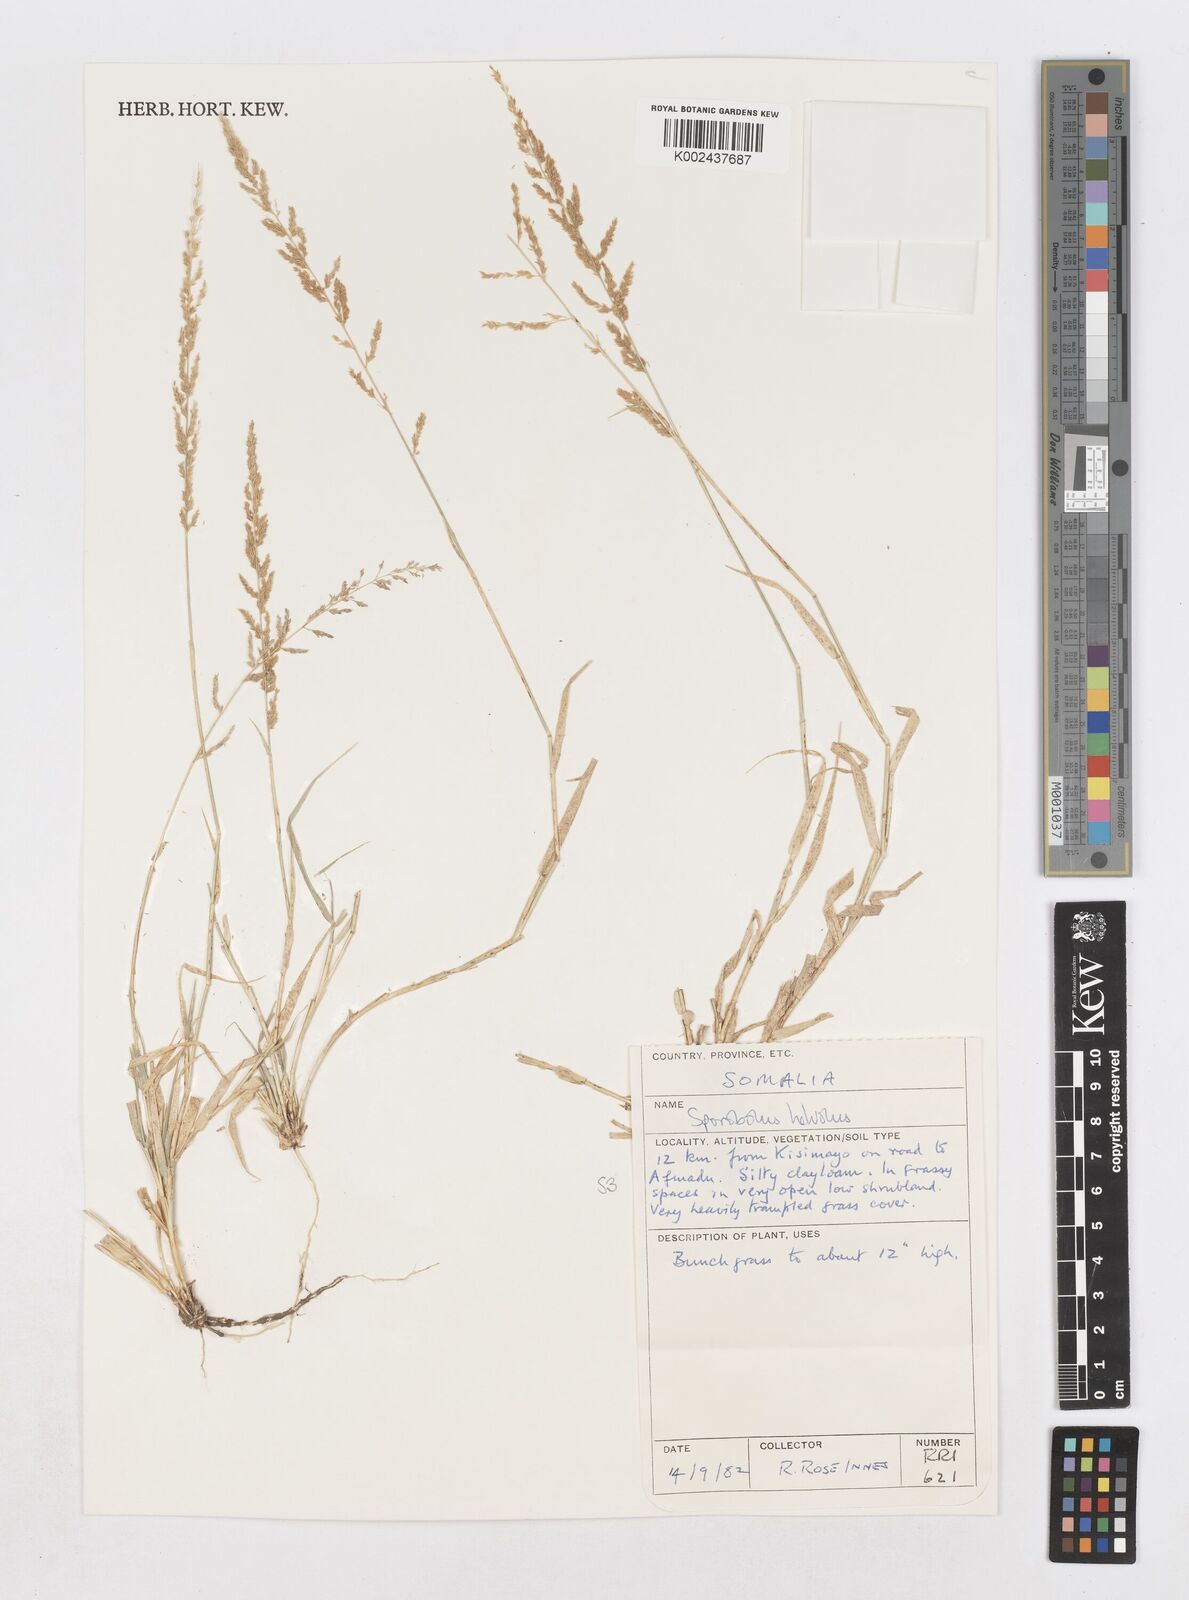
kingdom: Plantae
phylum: Tracheophyta
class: Liliopsida
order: Poales
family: Poaceae
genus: Sporobolus
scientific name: Sporobolus helvolus
